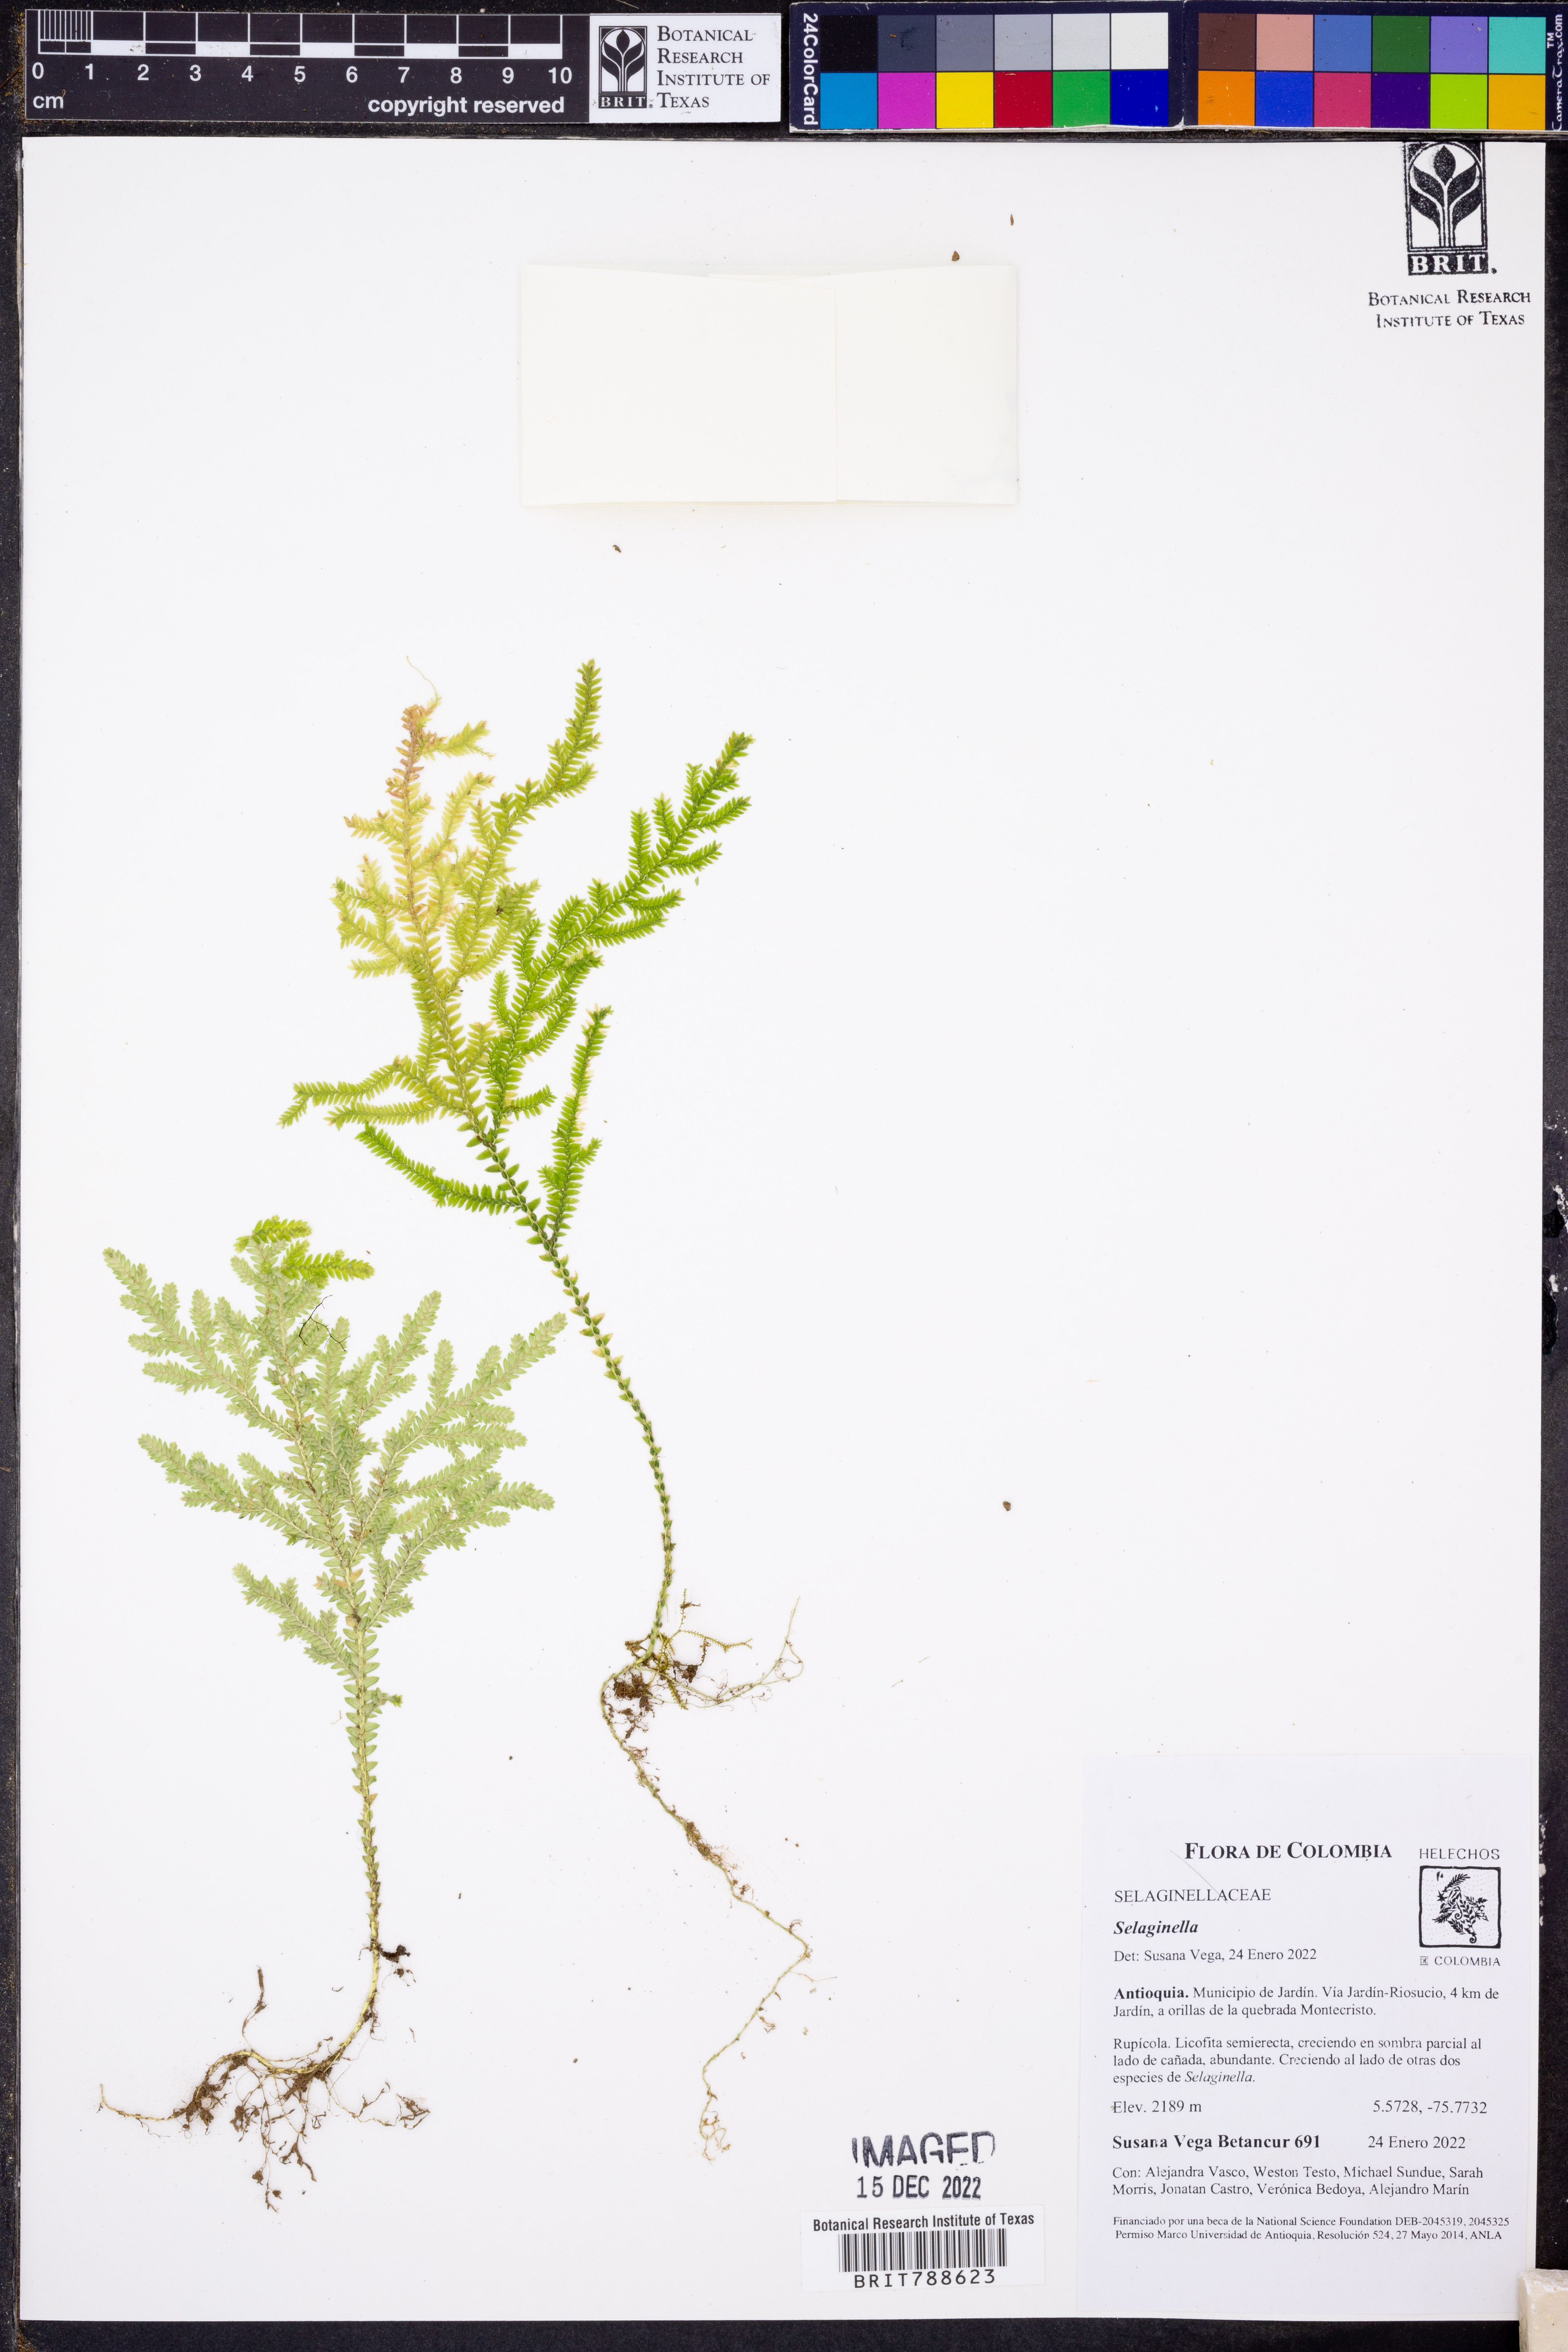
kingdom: Plantae
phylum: Tracheophyta
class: Lycopodiopsida
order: Selaginellales
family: Selaginellaceae
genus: Selaginella
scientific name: Selaginella
